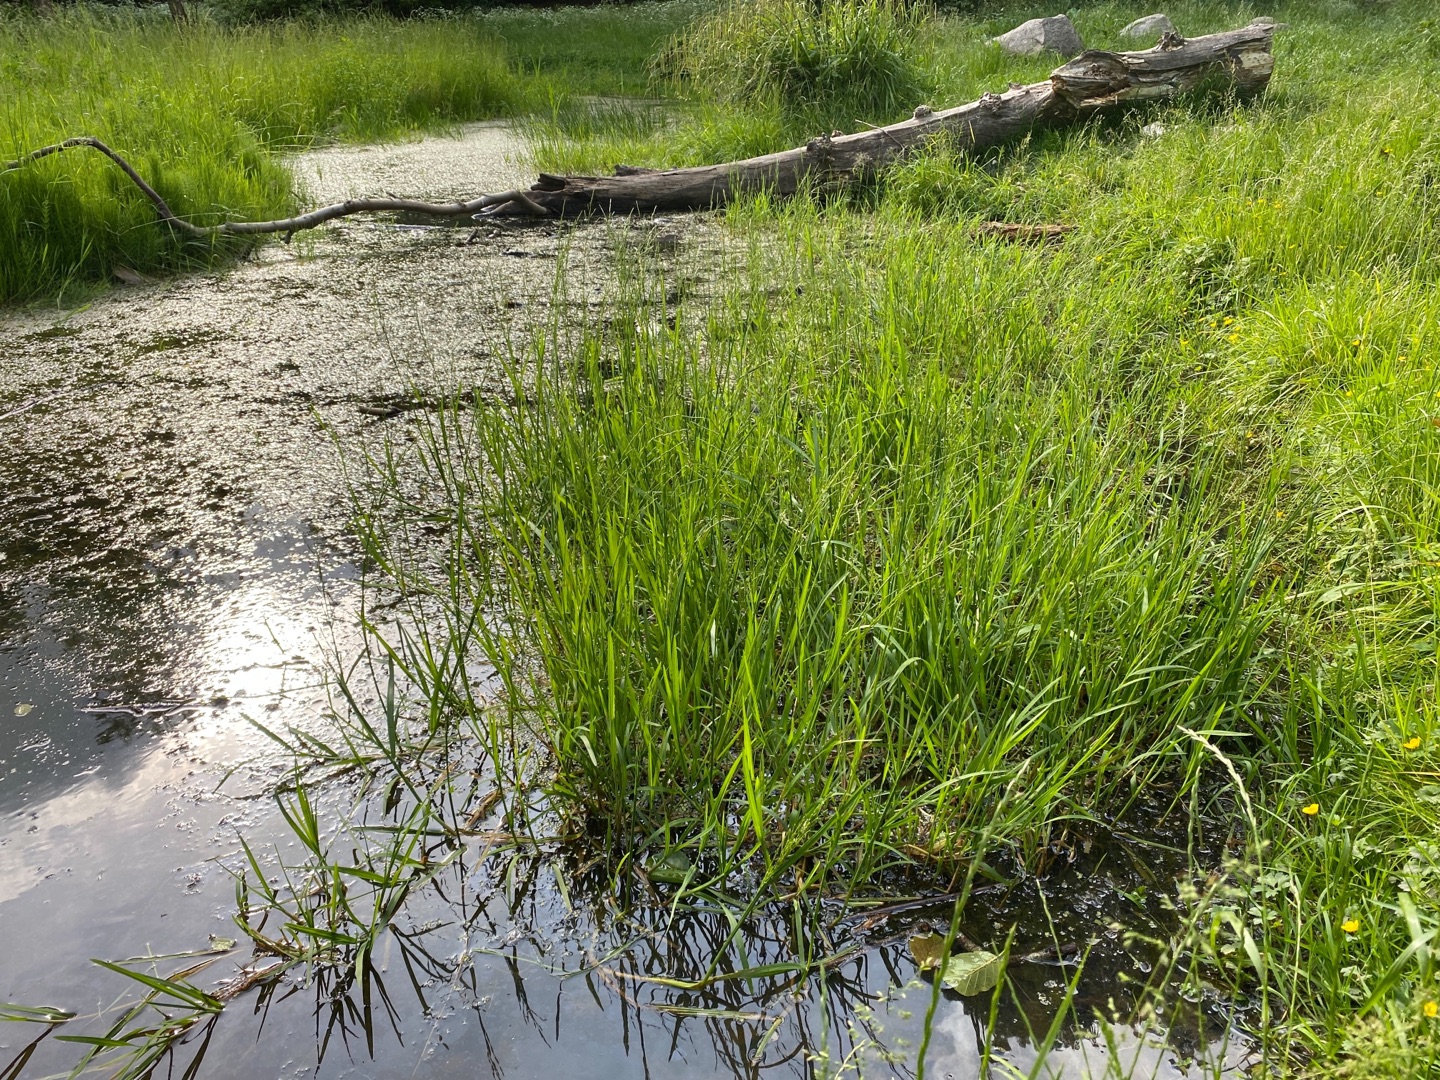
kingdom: Plantae
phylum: Tracheophyta
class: Liliopsida
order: Poales
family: Poaceae
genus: Glyceria
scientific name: Glyceria notata
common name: Butblomstret sødgræs
